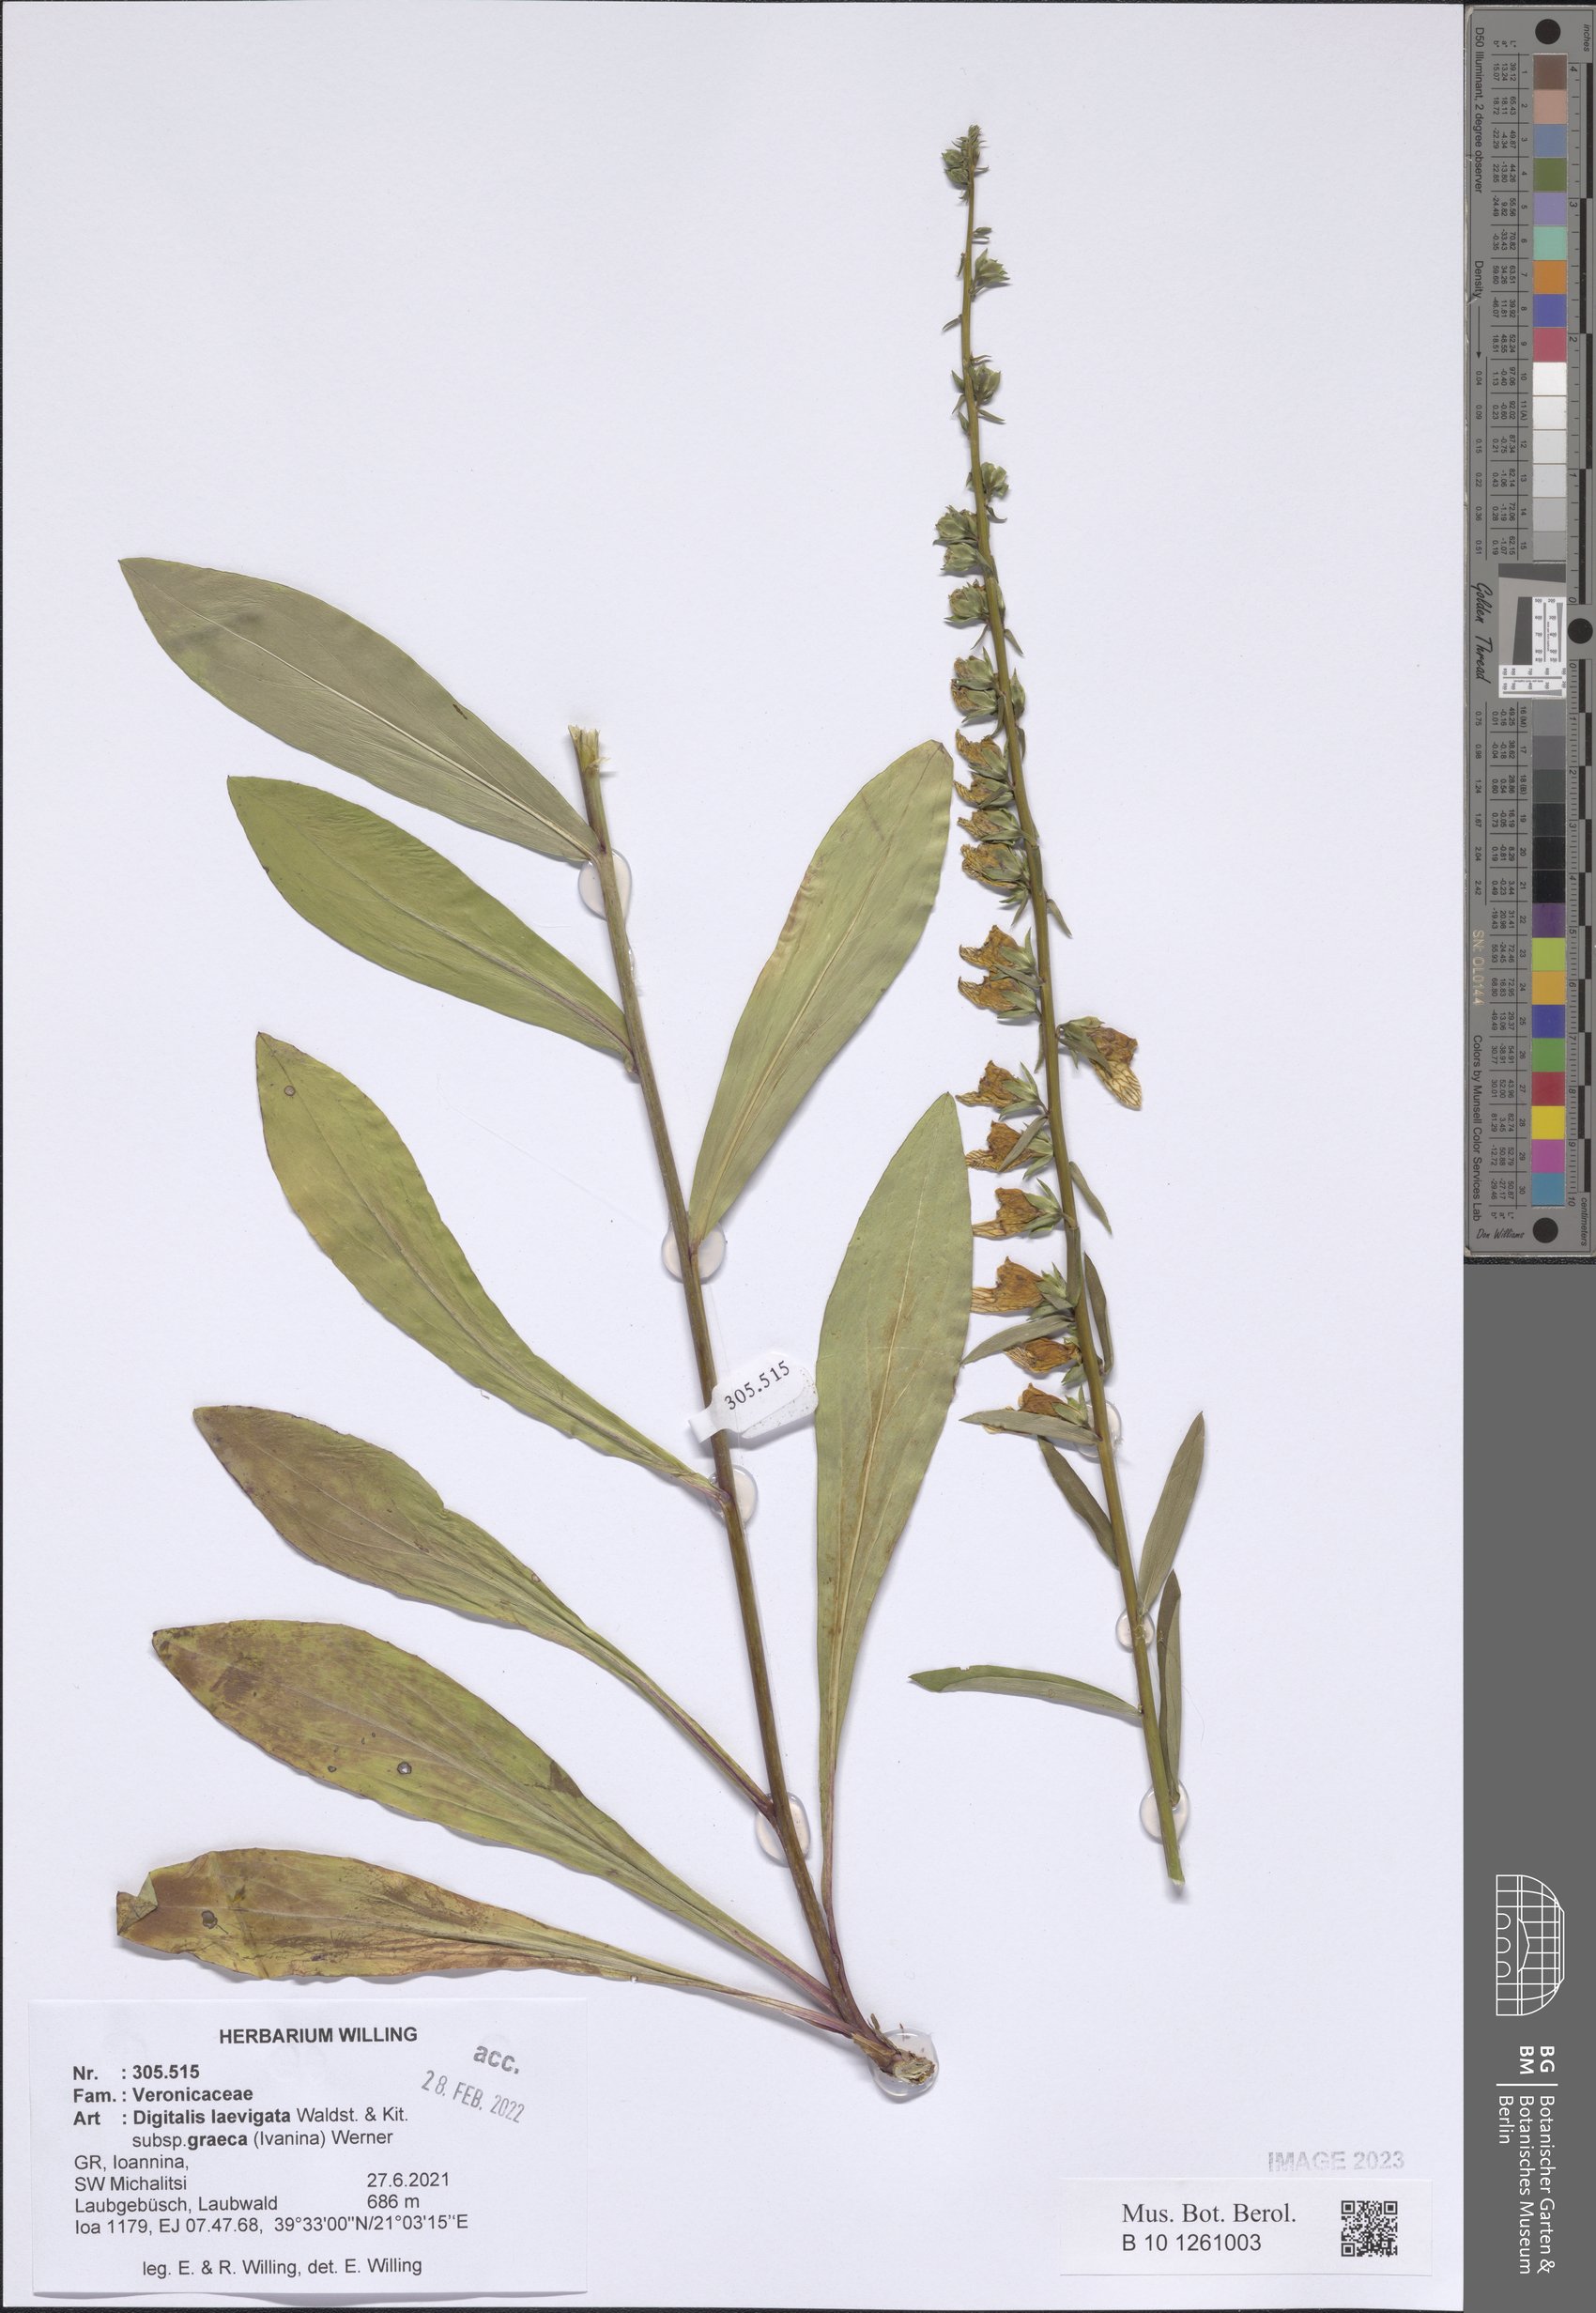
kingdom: Plantae
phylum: Tracheophyta
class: Magnoliopsida
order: Lamiales
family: Plantaginaceae
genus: Digitalis
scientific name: Digitalis laevigata
